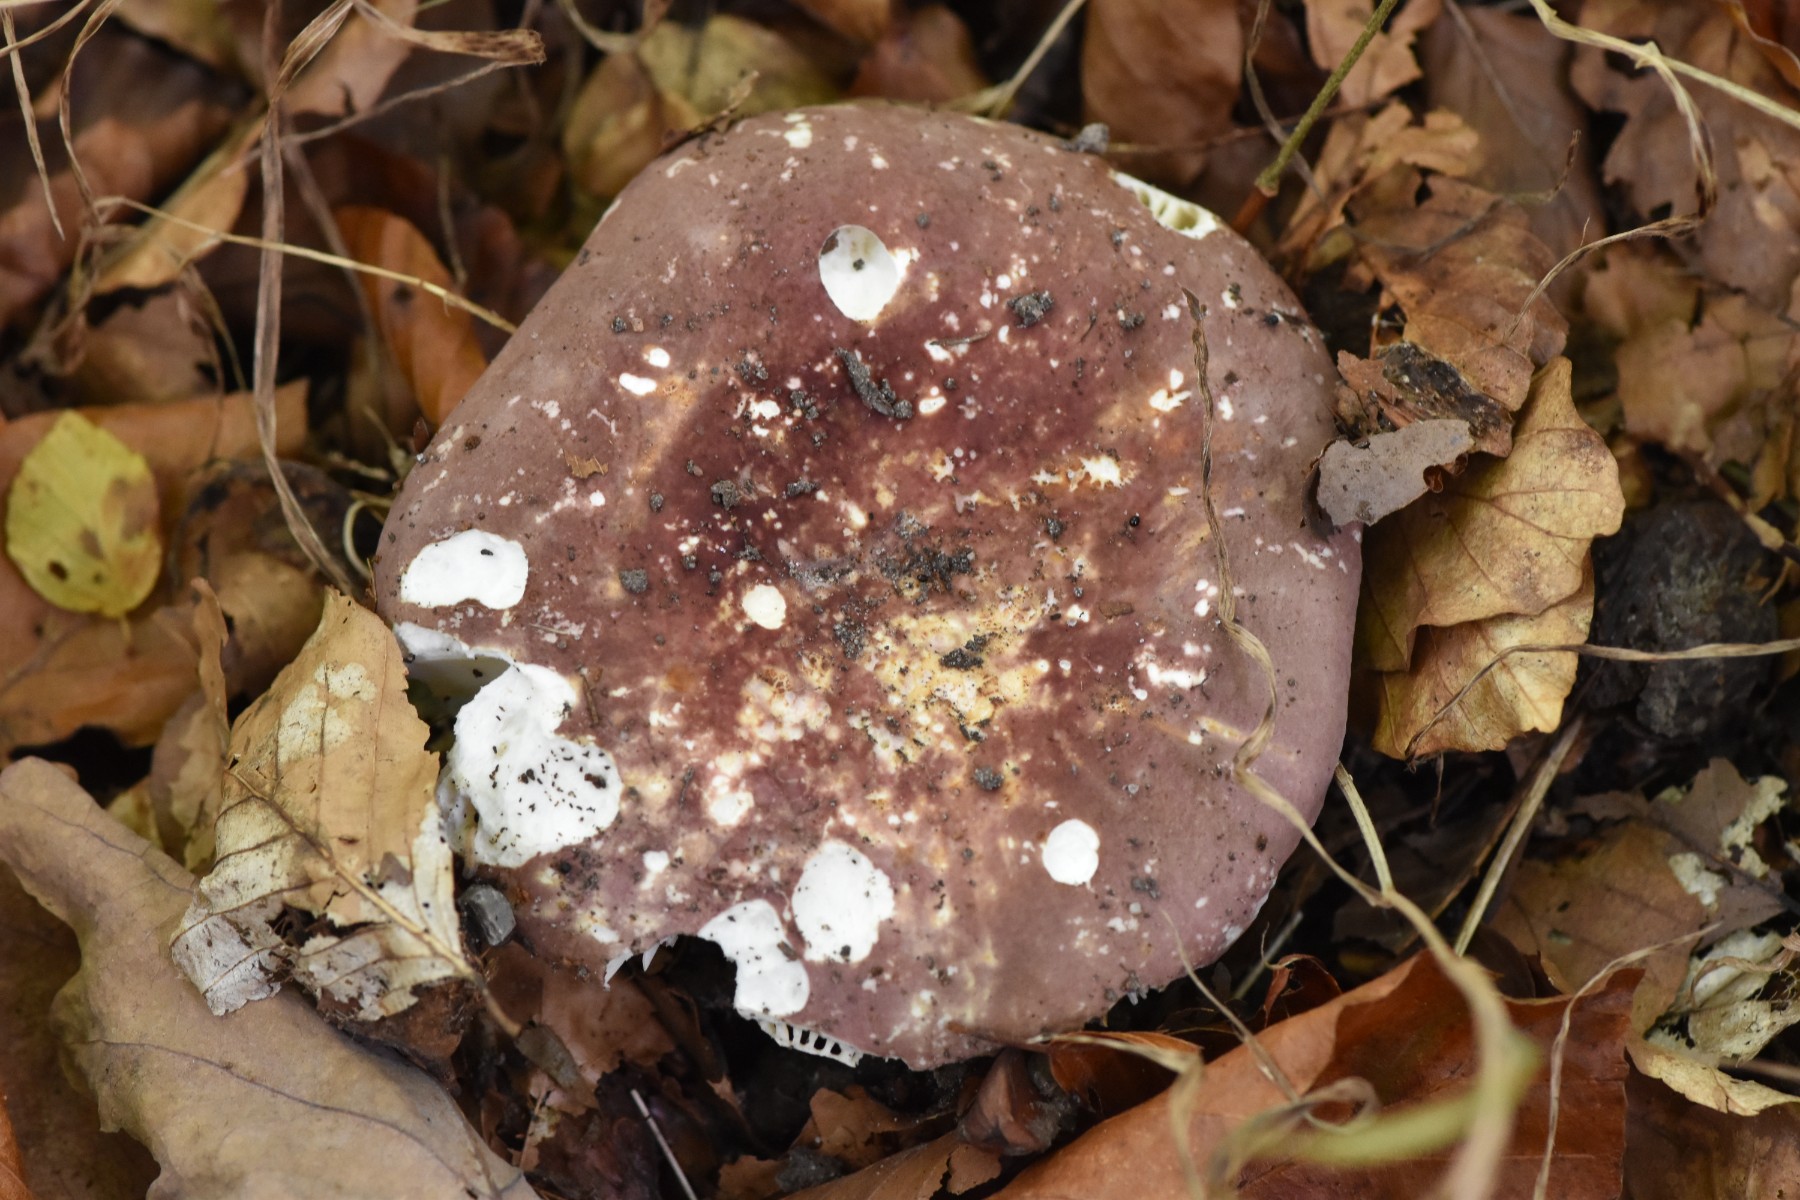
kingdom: Fungi
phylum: Basidiomycota
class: Agaricomycetes
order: Russulales
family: Russulaceae
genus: Russula
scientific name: Russula olivacea
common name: stor skørhat
